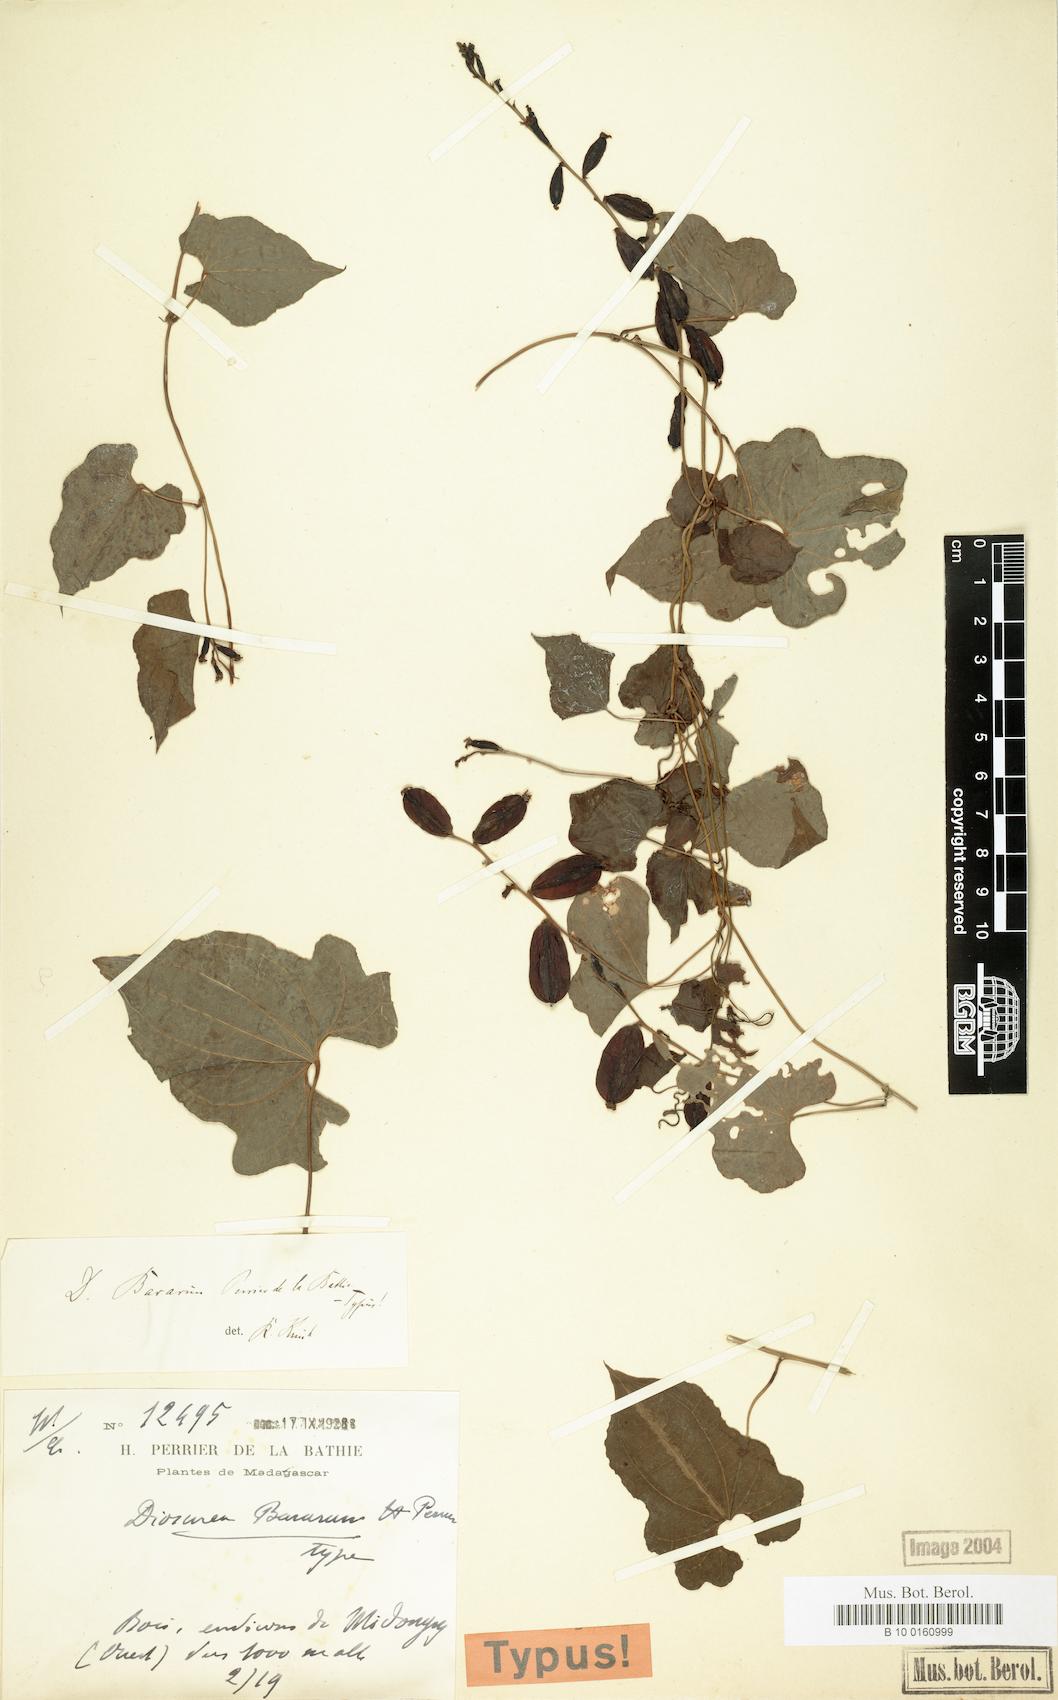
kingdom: Plantae
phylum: Tracheophyta
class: Liliopsida
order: Dioscoreales
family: Dioscoreaceae
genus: Dioscorea
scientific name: Dioscorea acuminata
